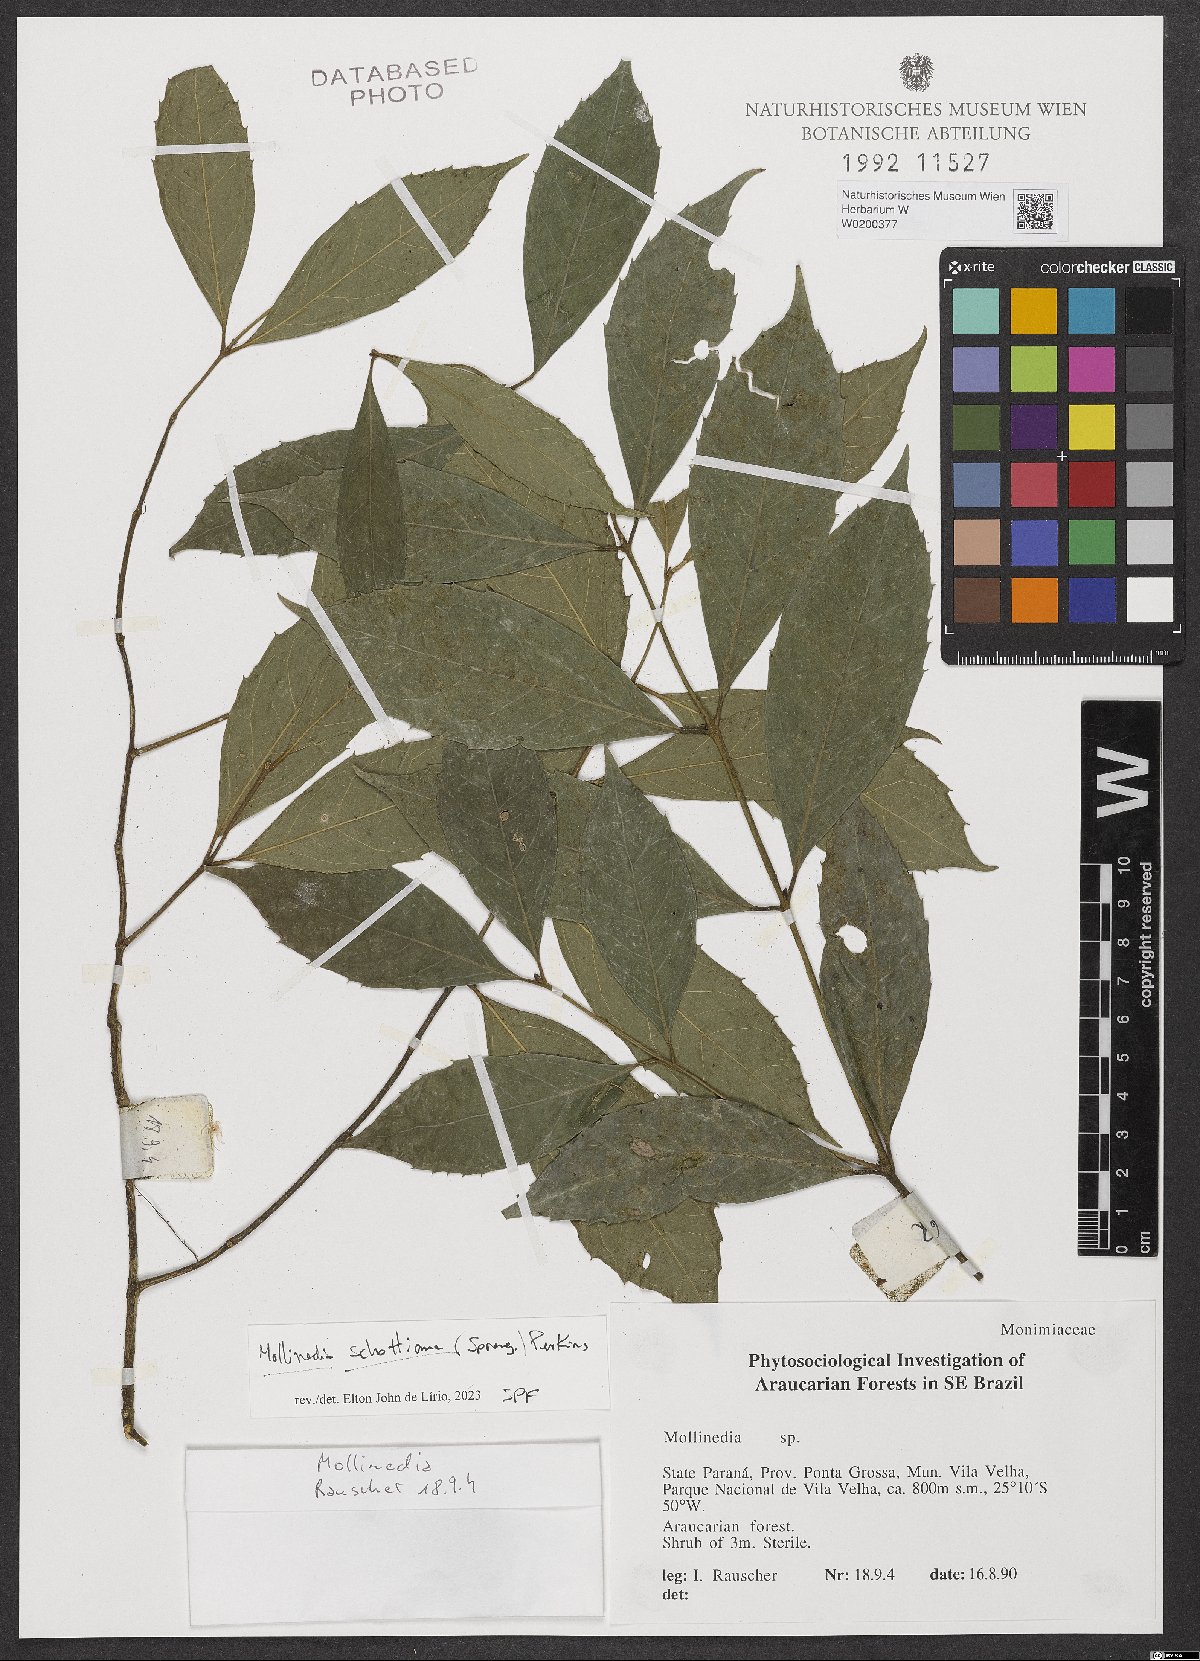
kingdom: Plantae
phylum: Tracheophyta
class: Magnoliopsida
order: Laurales
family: Monimiaceae
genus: Mollinedia
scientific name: Mollinedia umbellata
